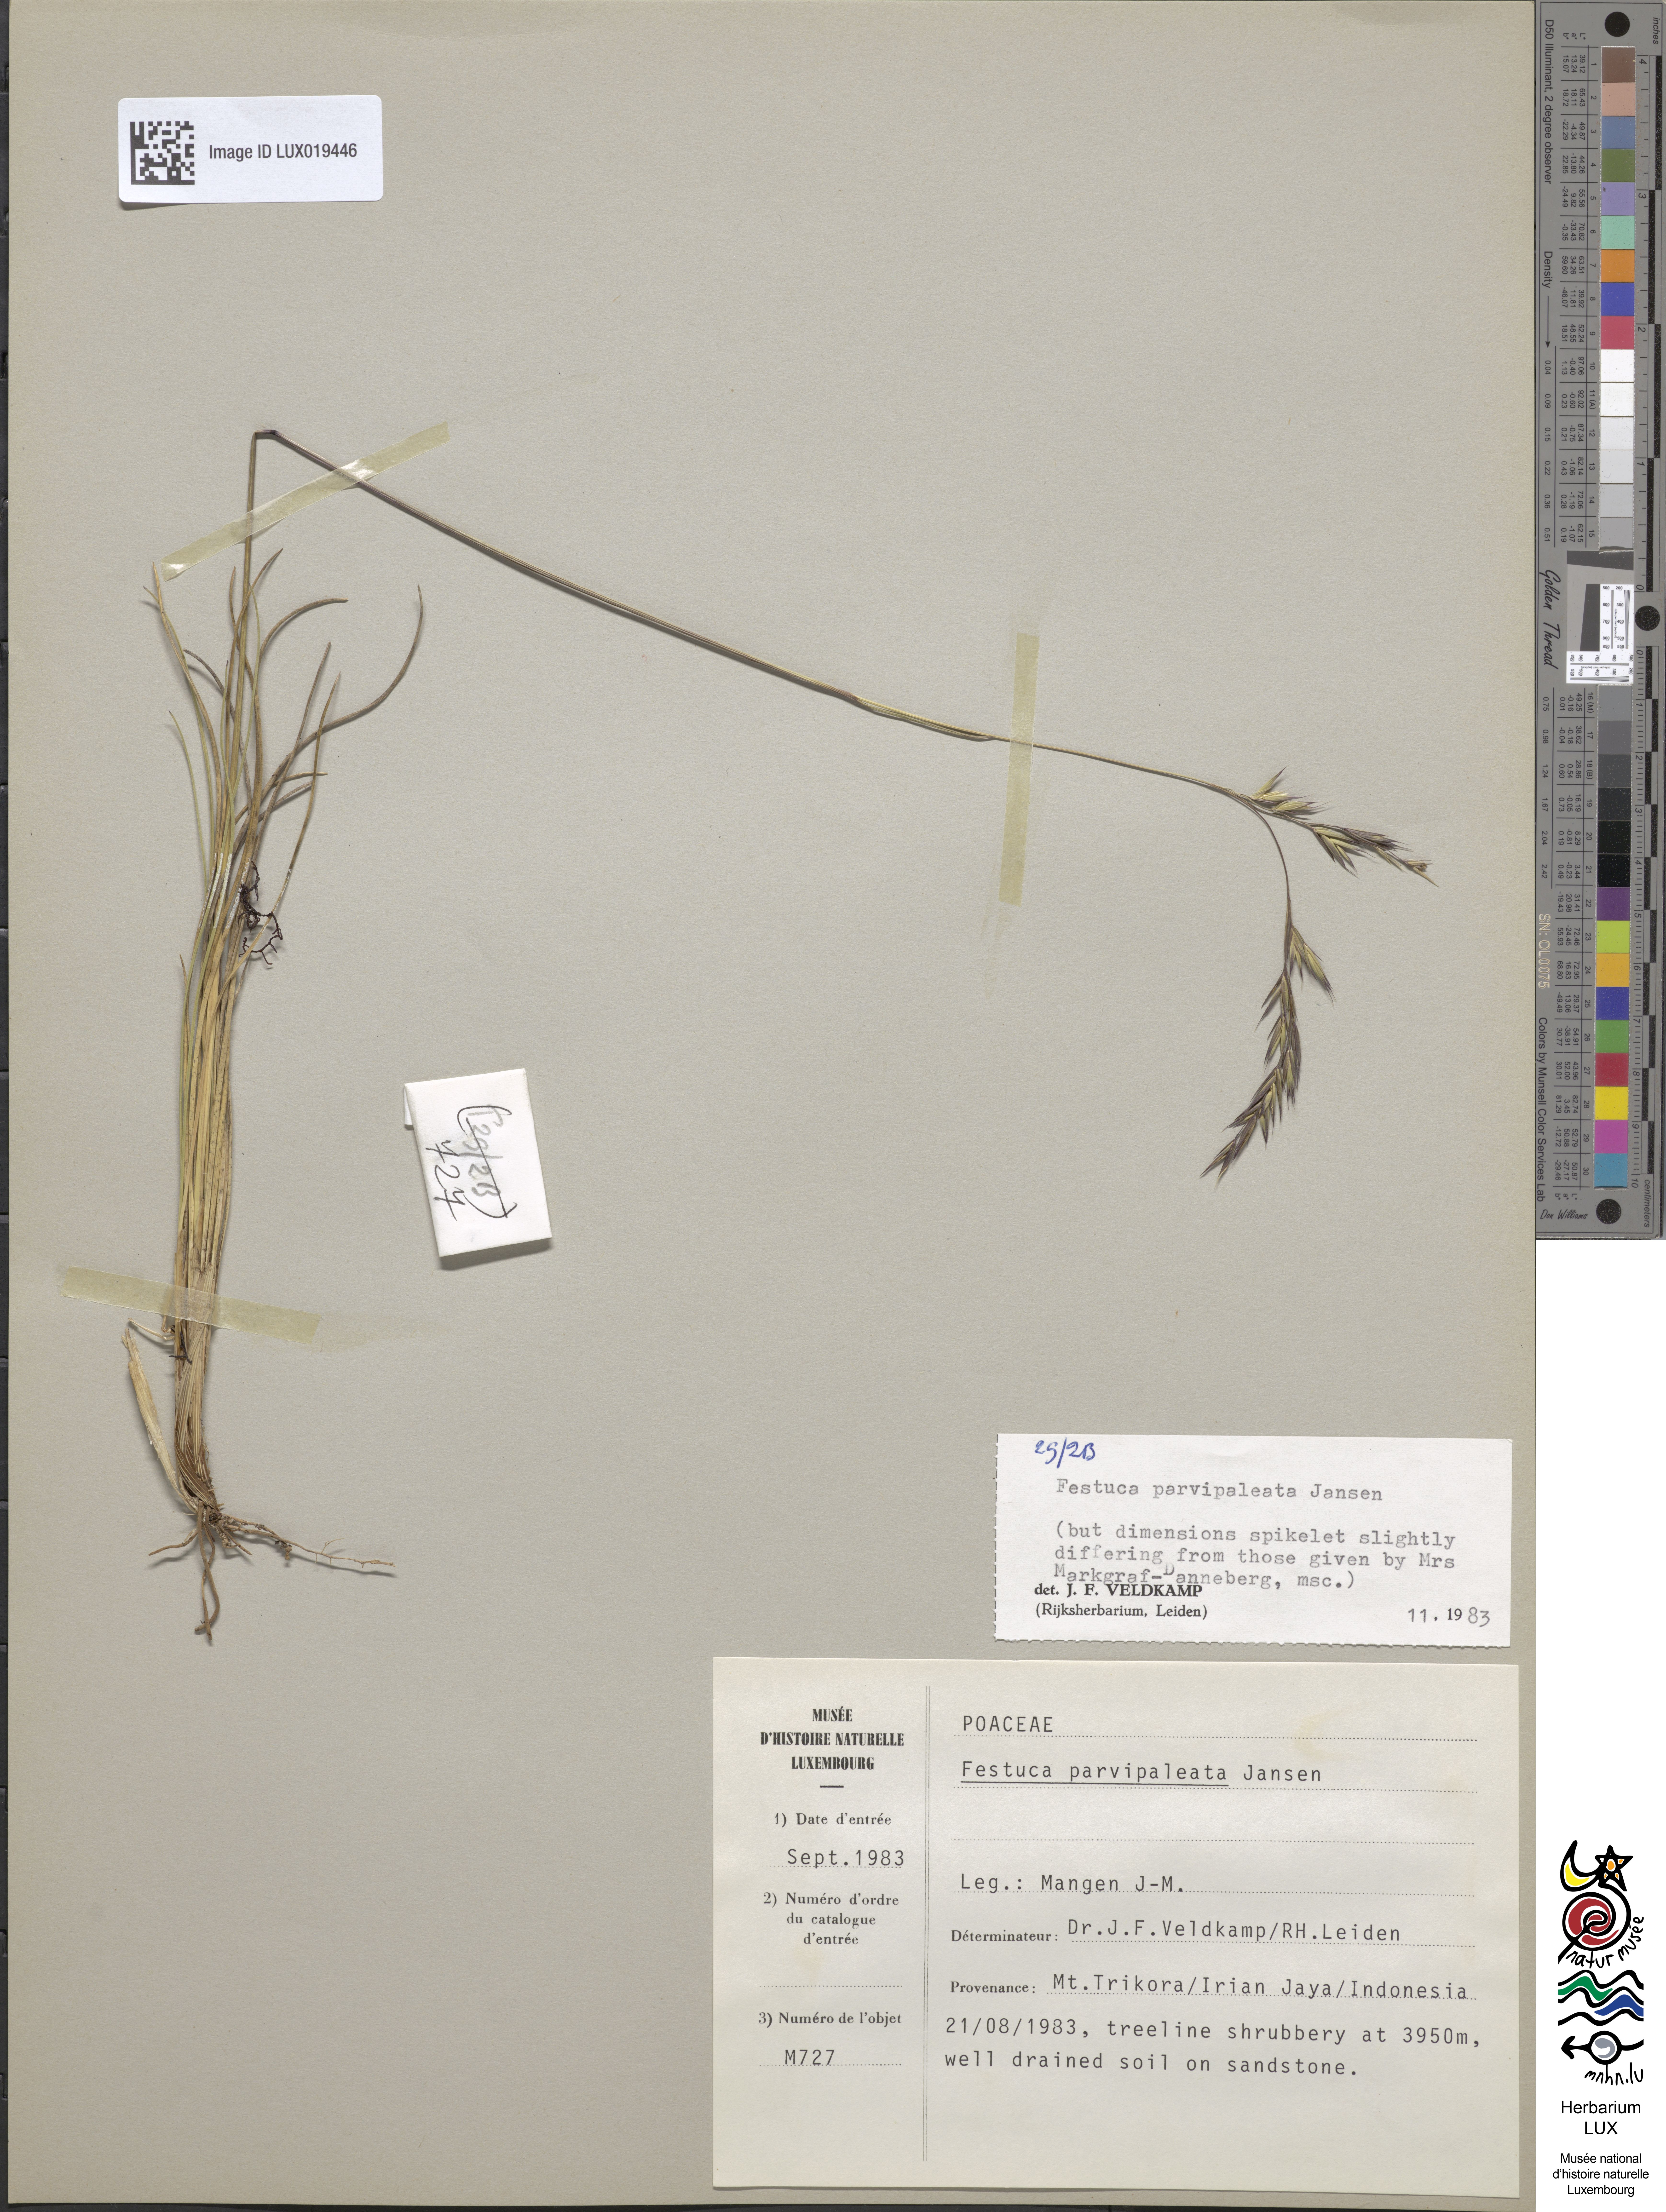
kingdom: Plantae
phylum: Tracheophyta
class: Liliopsida
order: Poales
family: Poaceae
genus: Festuca
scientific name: Festuca parvipaleata
